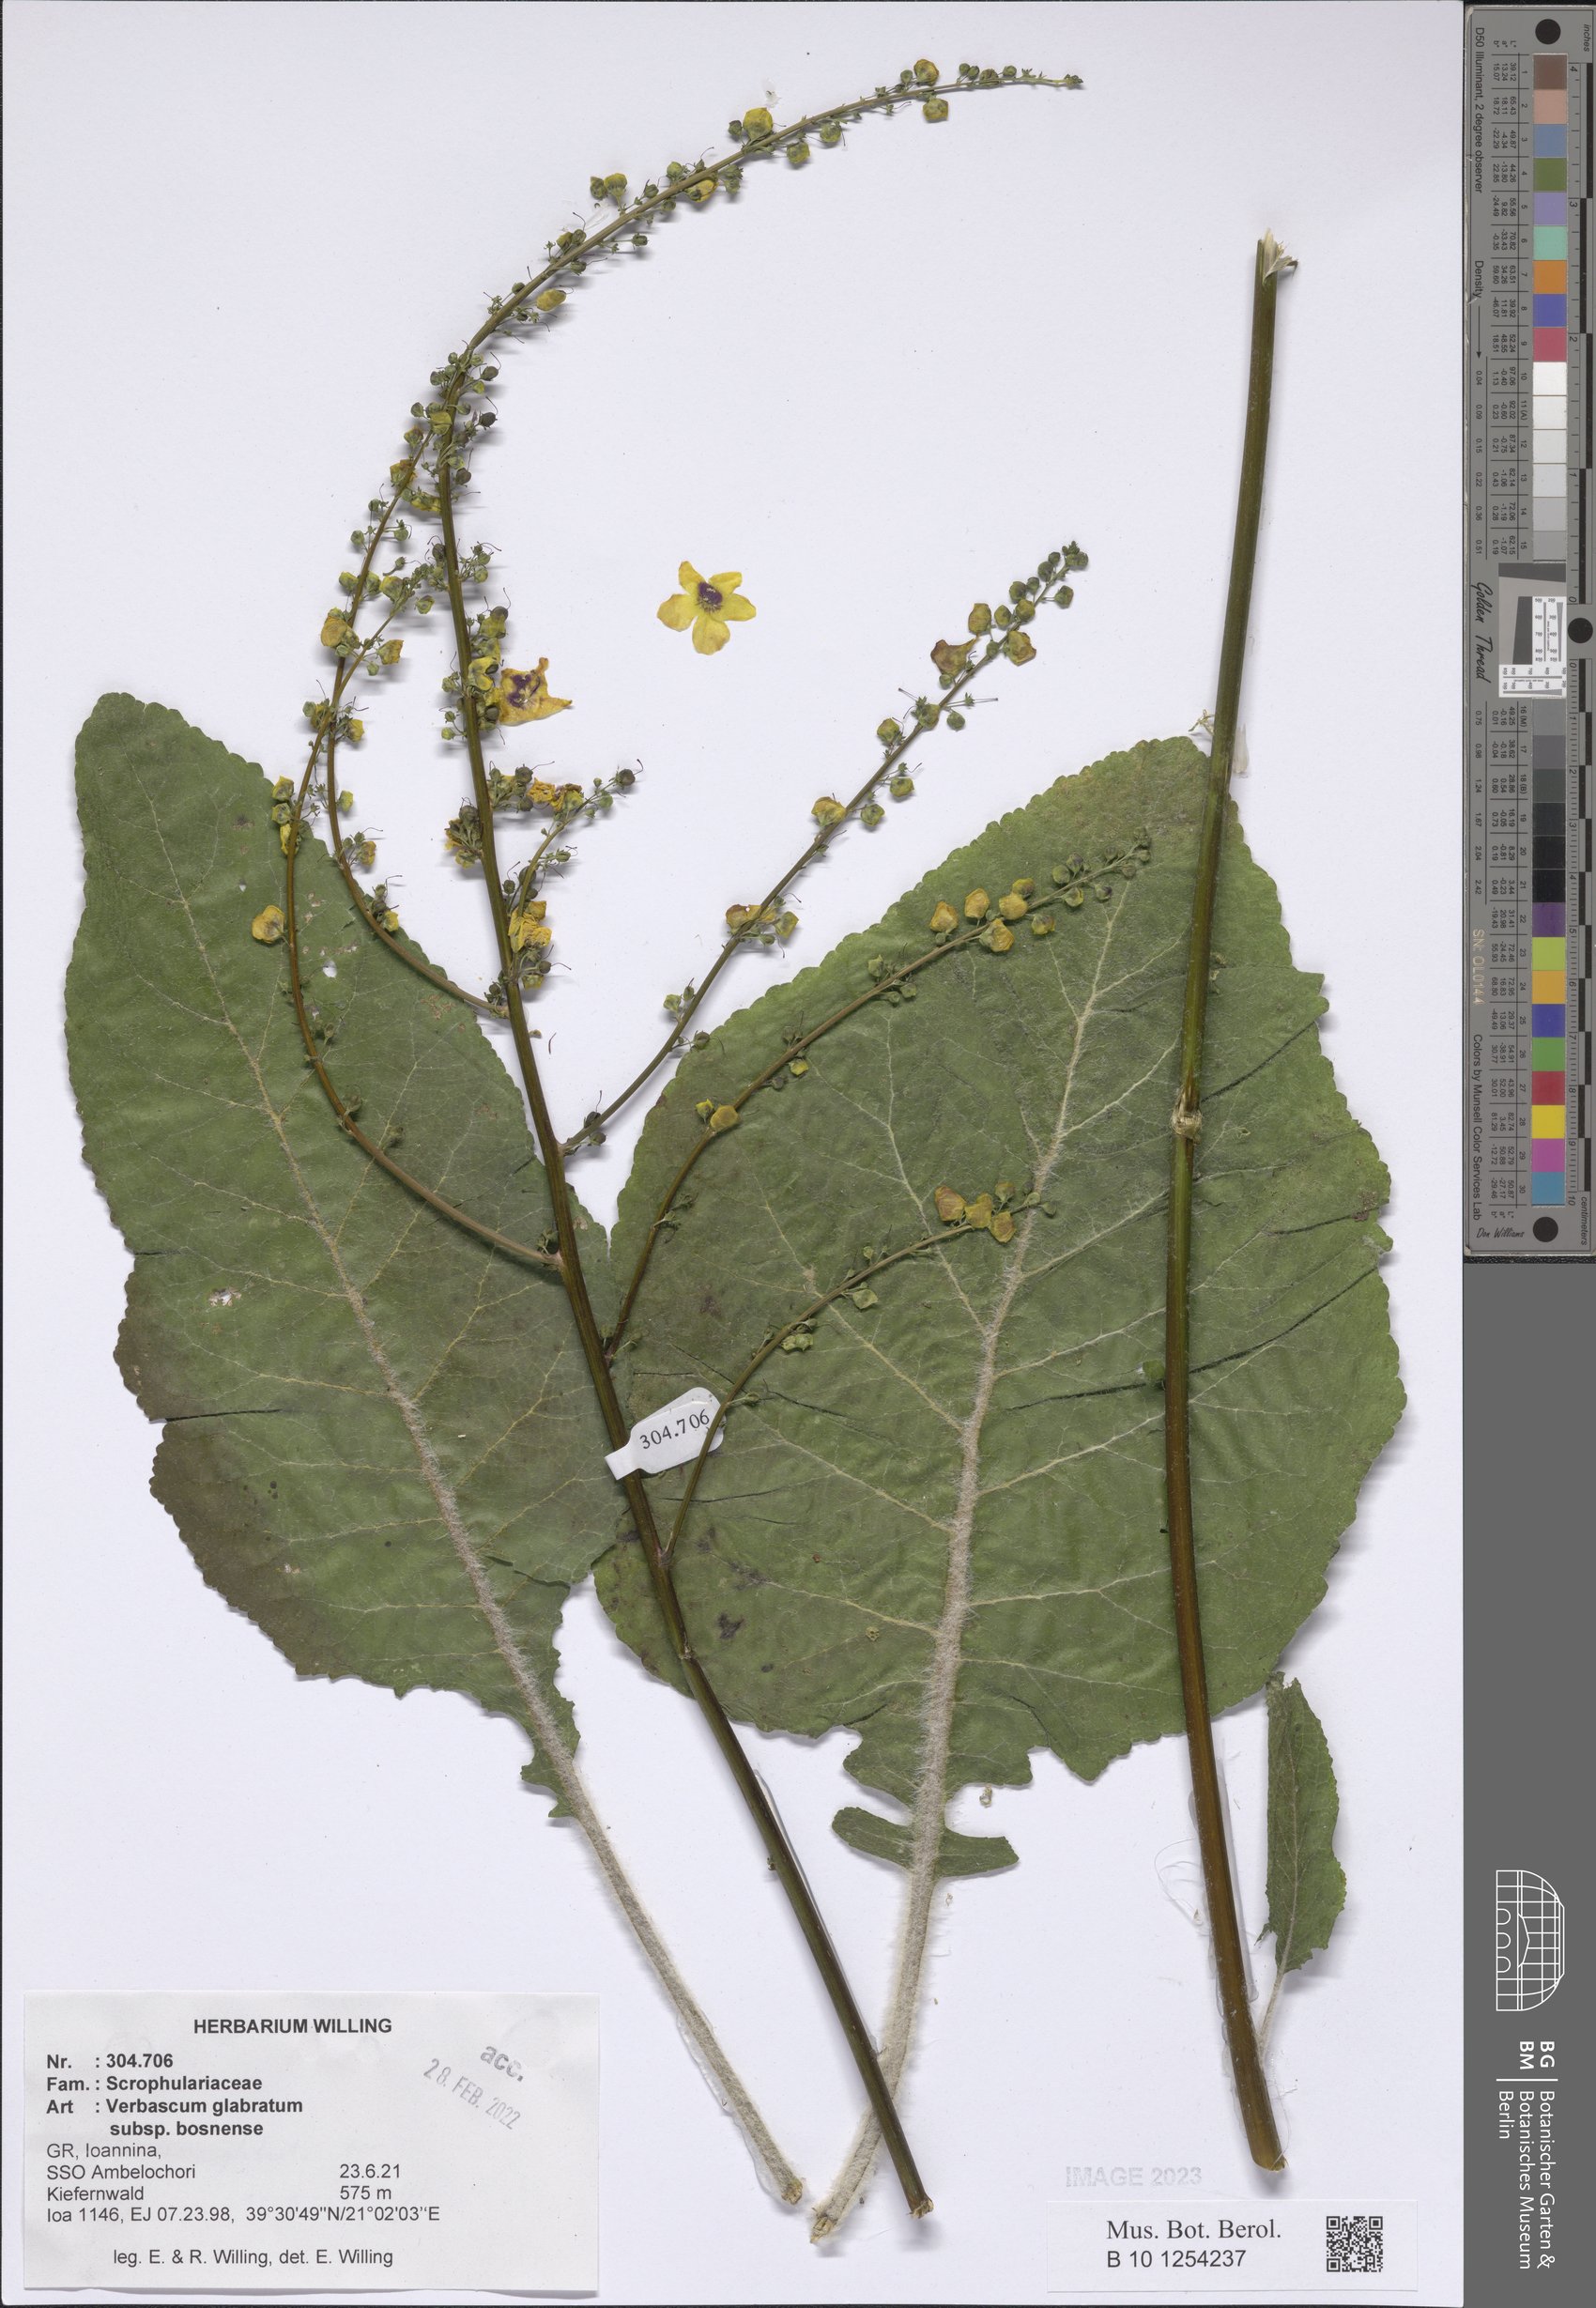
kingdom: Plantae
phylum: Tracheophyta
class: Magnoliopsida
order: Lamiales
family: Scrophulariaceae
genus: Verbascum
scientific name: Verbascum glabratum
